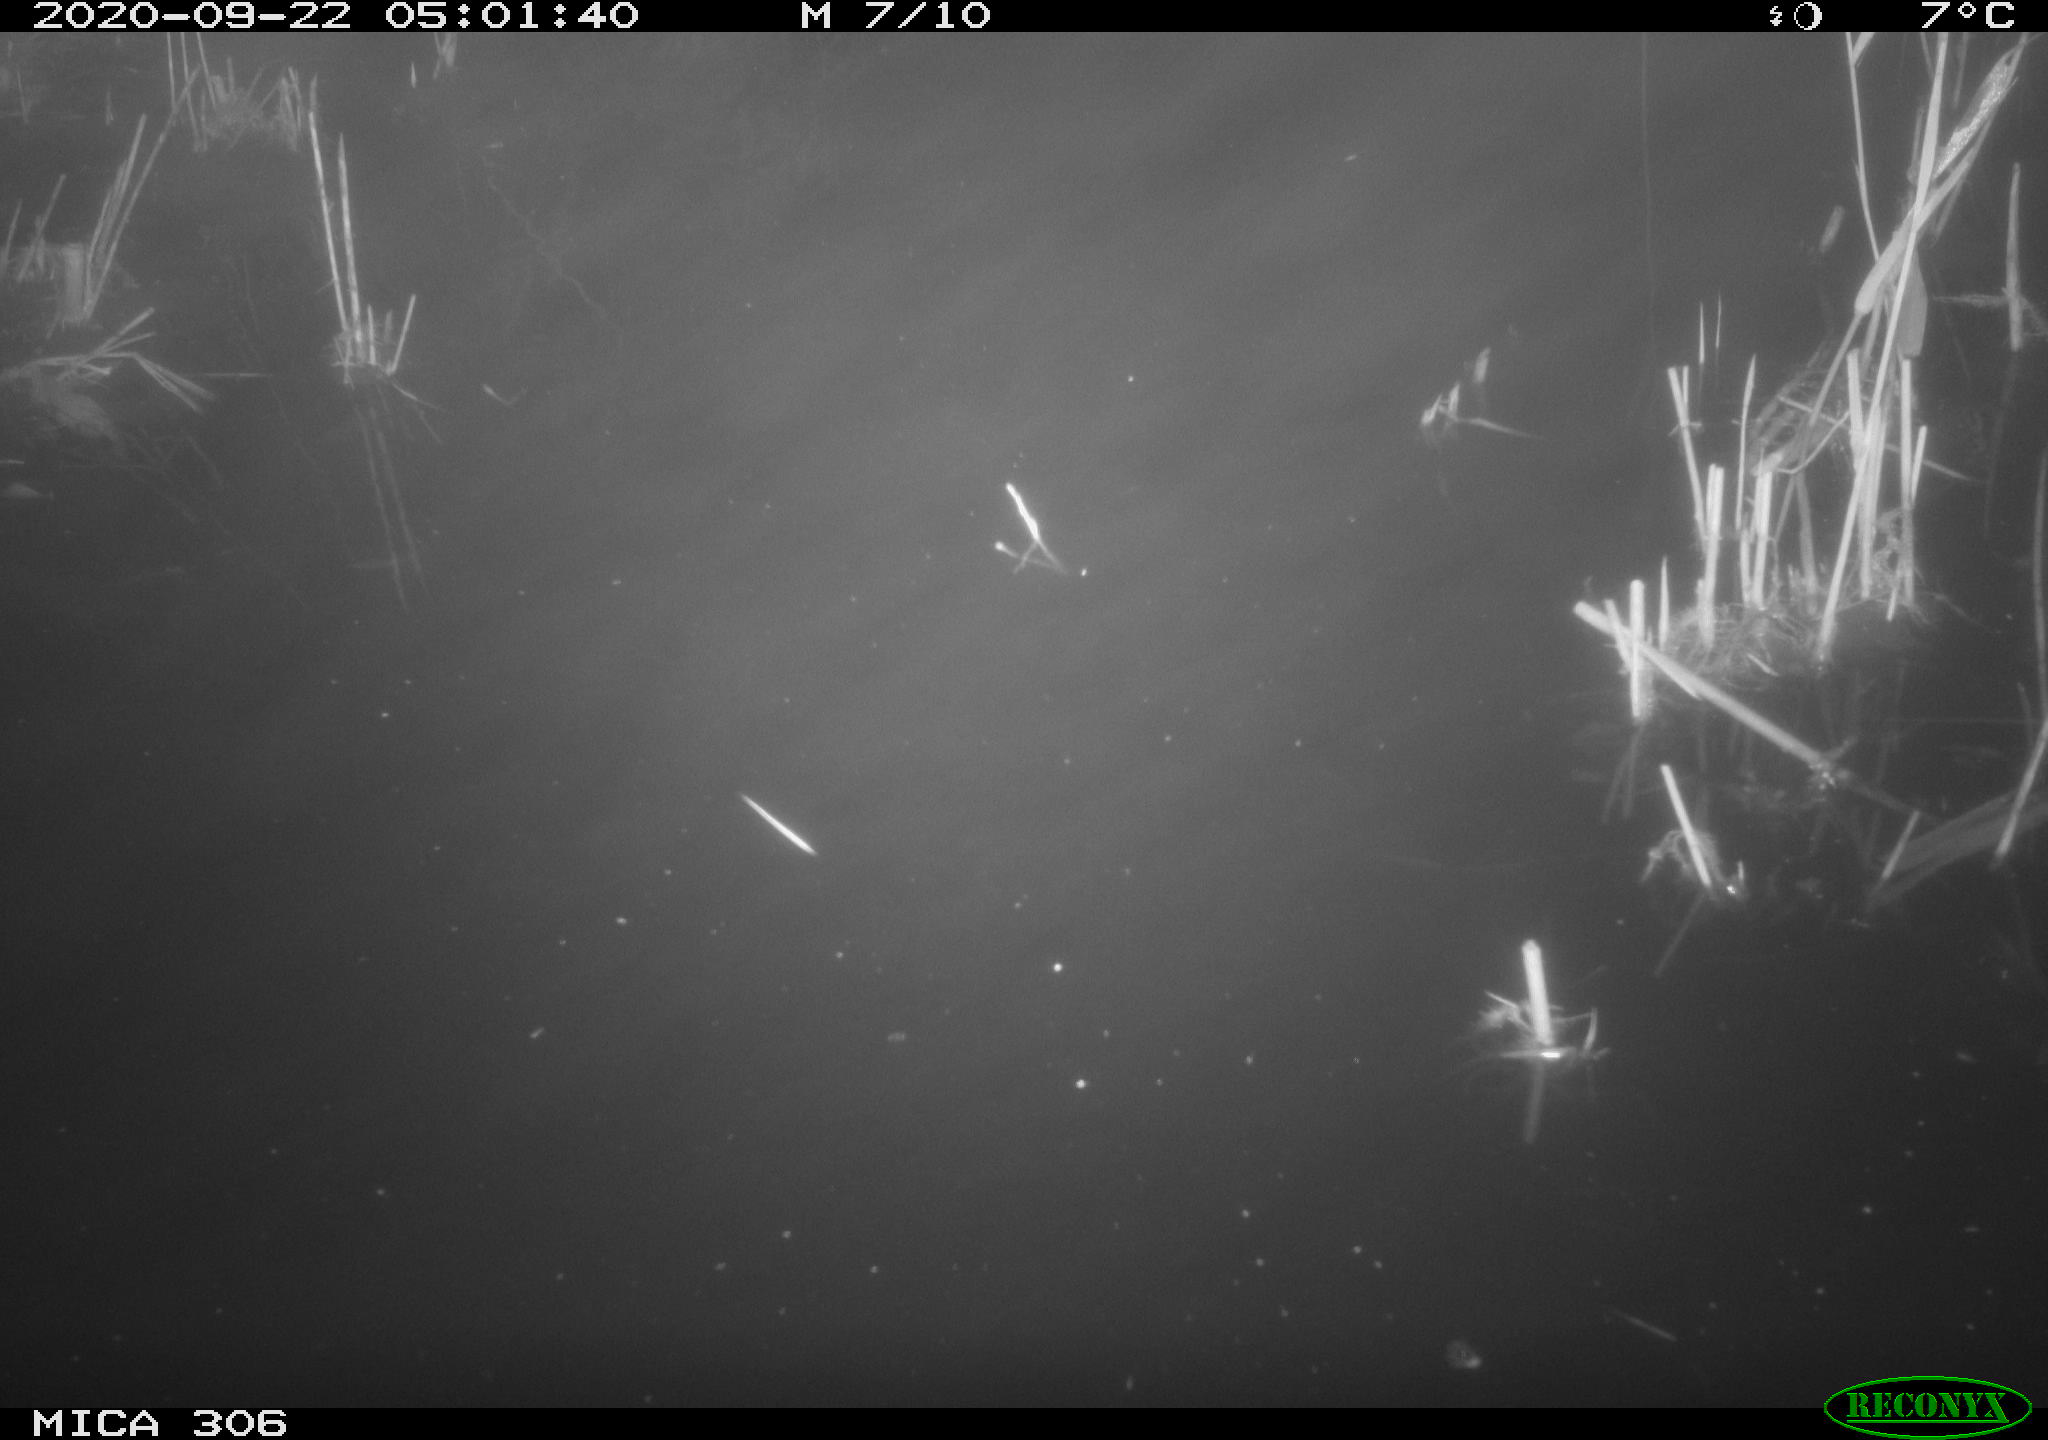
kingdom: Animalia
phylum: Chordata
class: Mammalia
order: Rodentia
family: Muridae
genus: Rattus
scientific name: Rattus norvegicus
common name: Brown rat
